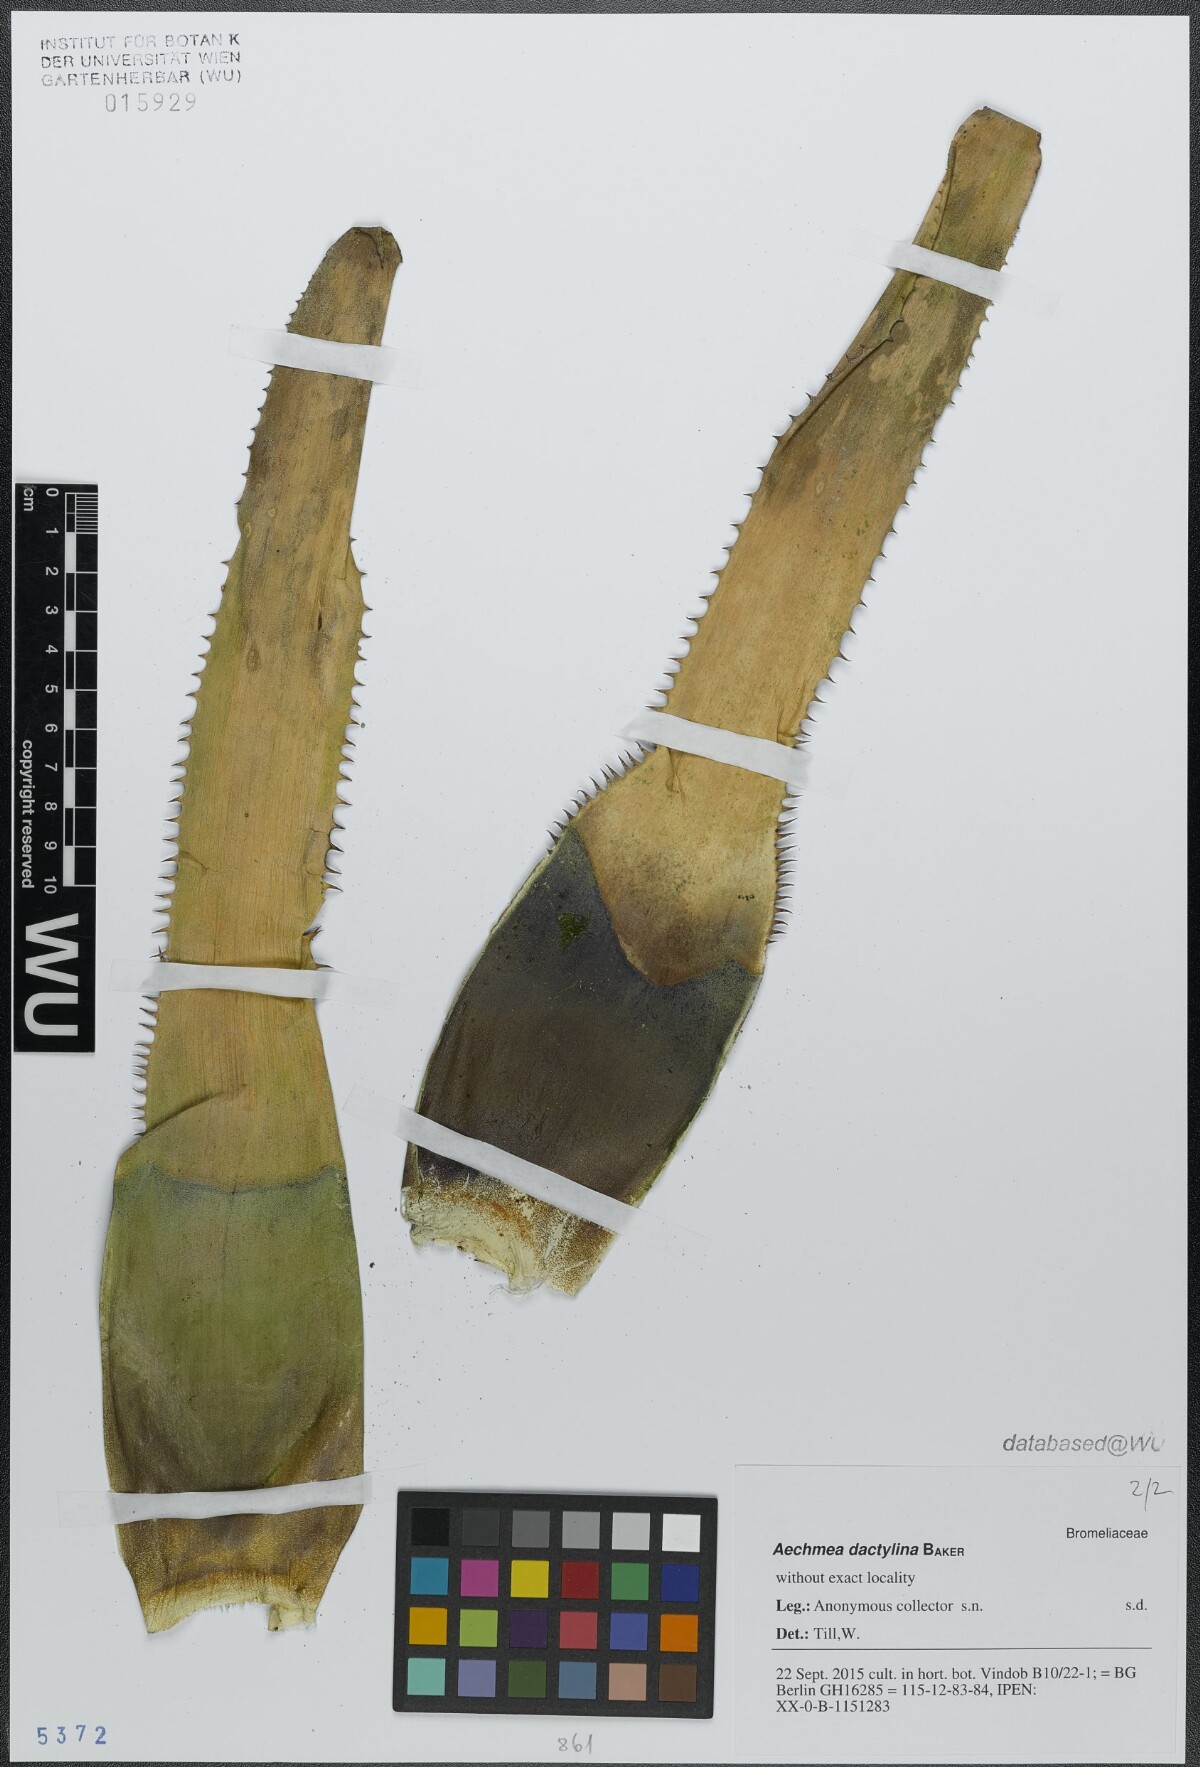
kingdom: Plantae
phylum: Tracheophyta
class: Liliopsida
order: Poales
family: Bromeliaceae
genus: Aechmea
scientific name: Aechmea dactylina
